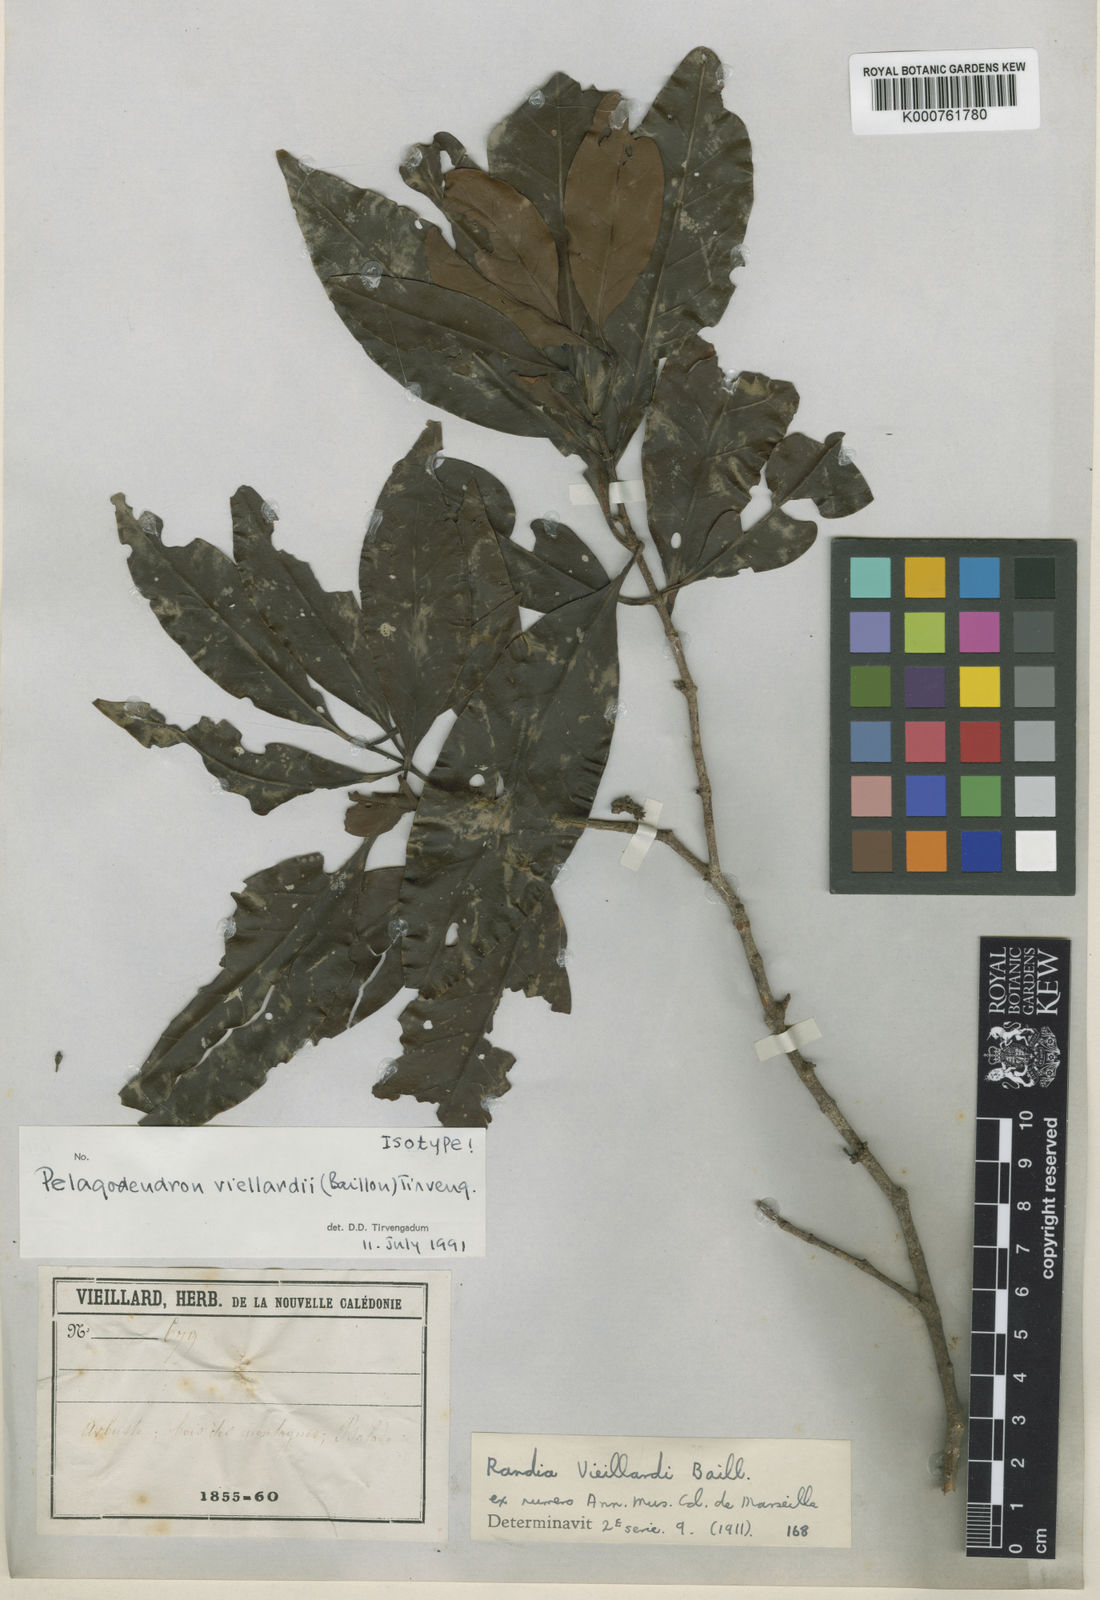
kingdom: Plantae
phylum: Tracheophyta
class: Magnoliopsida
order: Gentianales
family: Rubiaceae
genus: Aidia
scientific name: Aidia vieillardii
